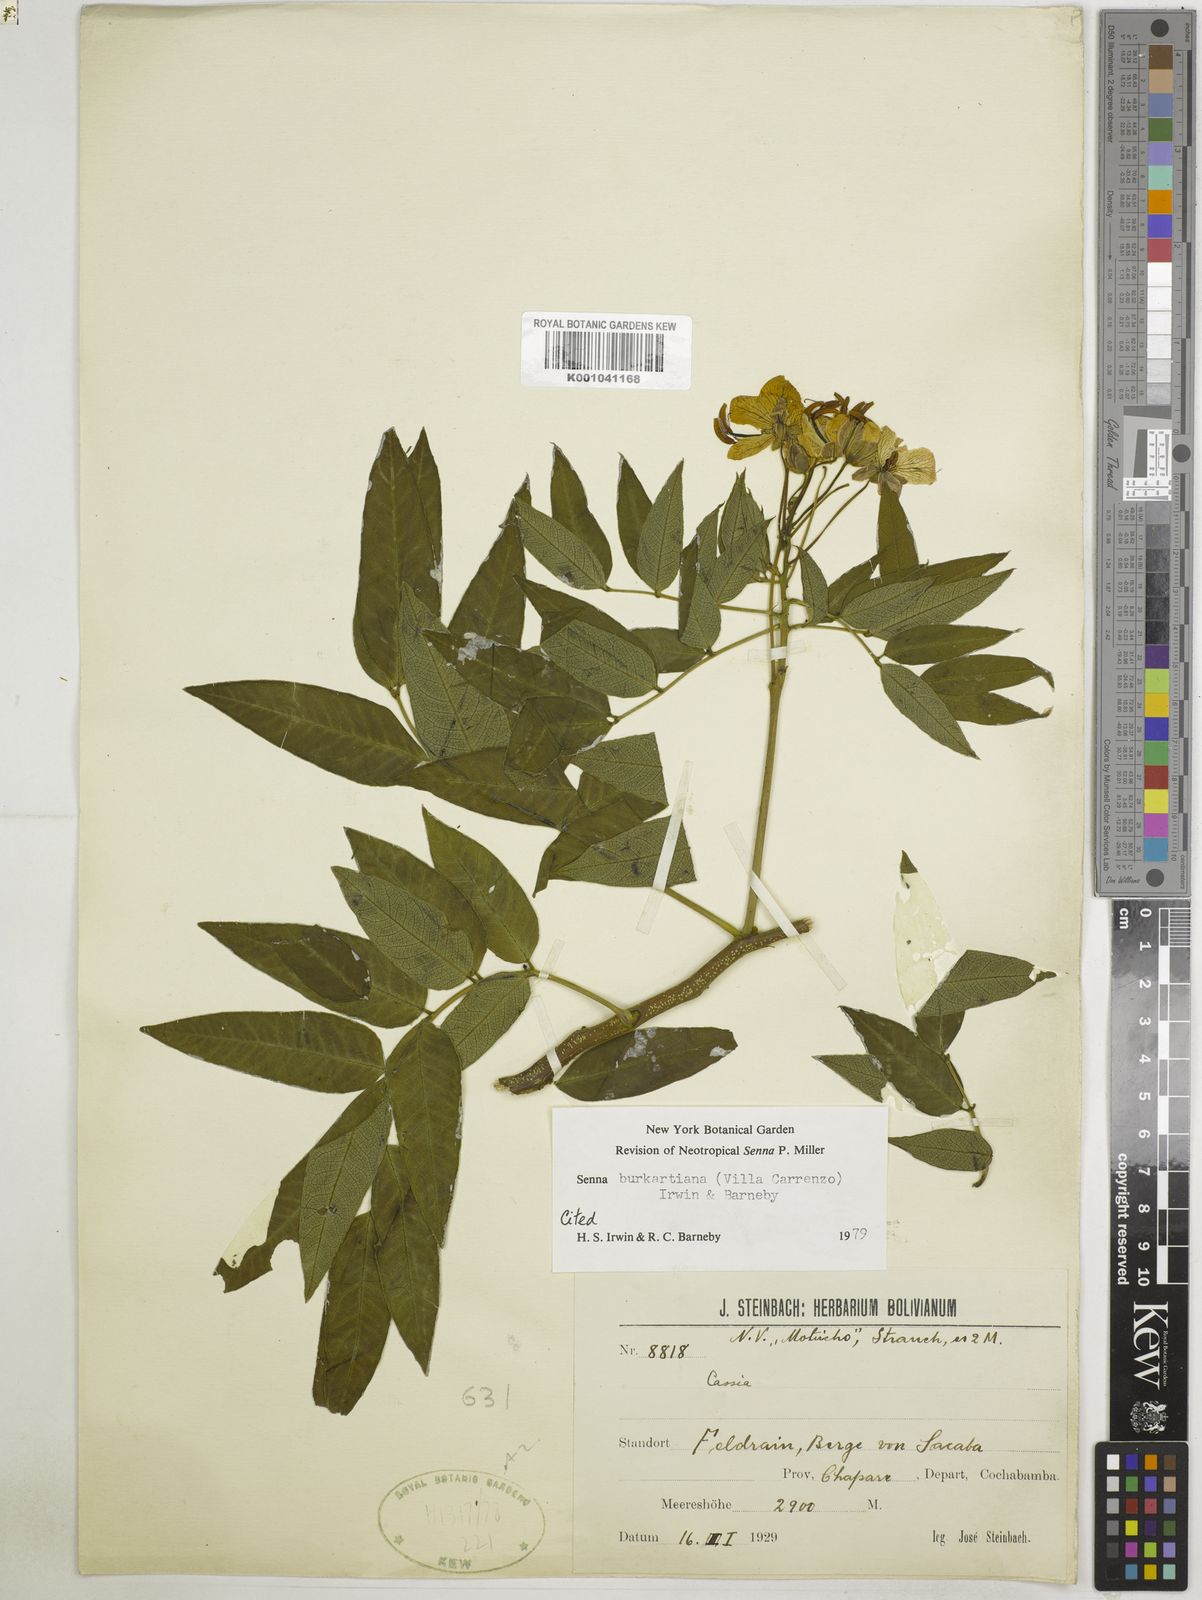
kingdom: Plantae
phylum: Tracheophyta
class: Magnoliopsida
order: Fabales
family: Fabaceae
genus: Senna
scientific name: Senna burkartiana
